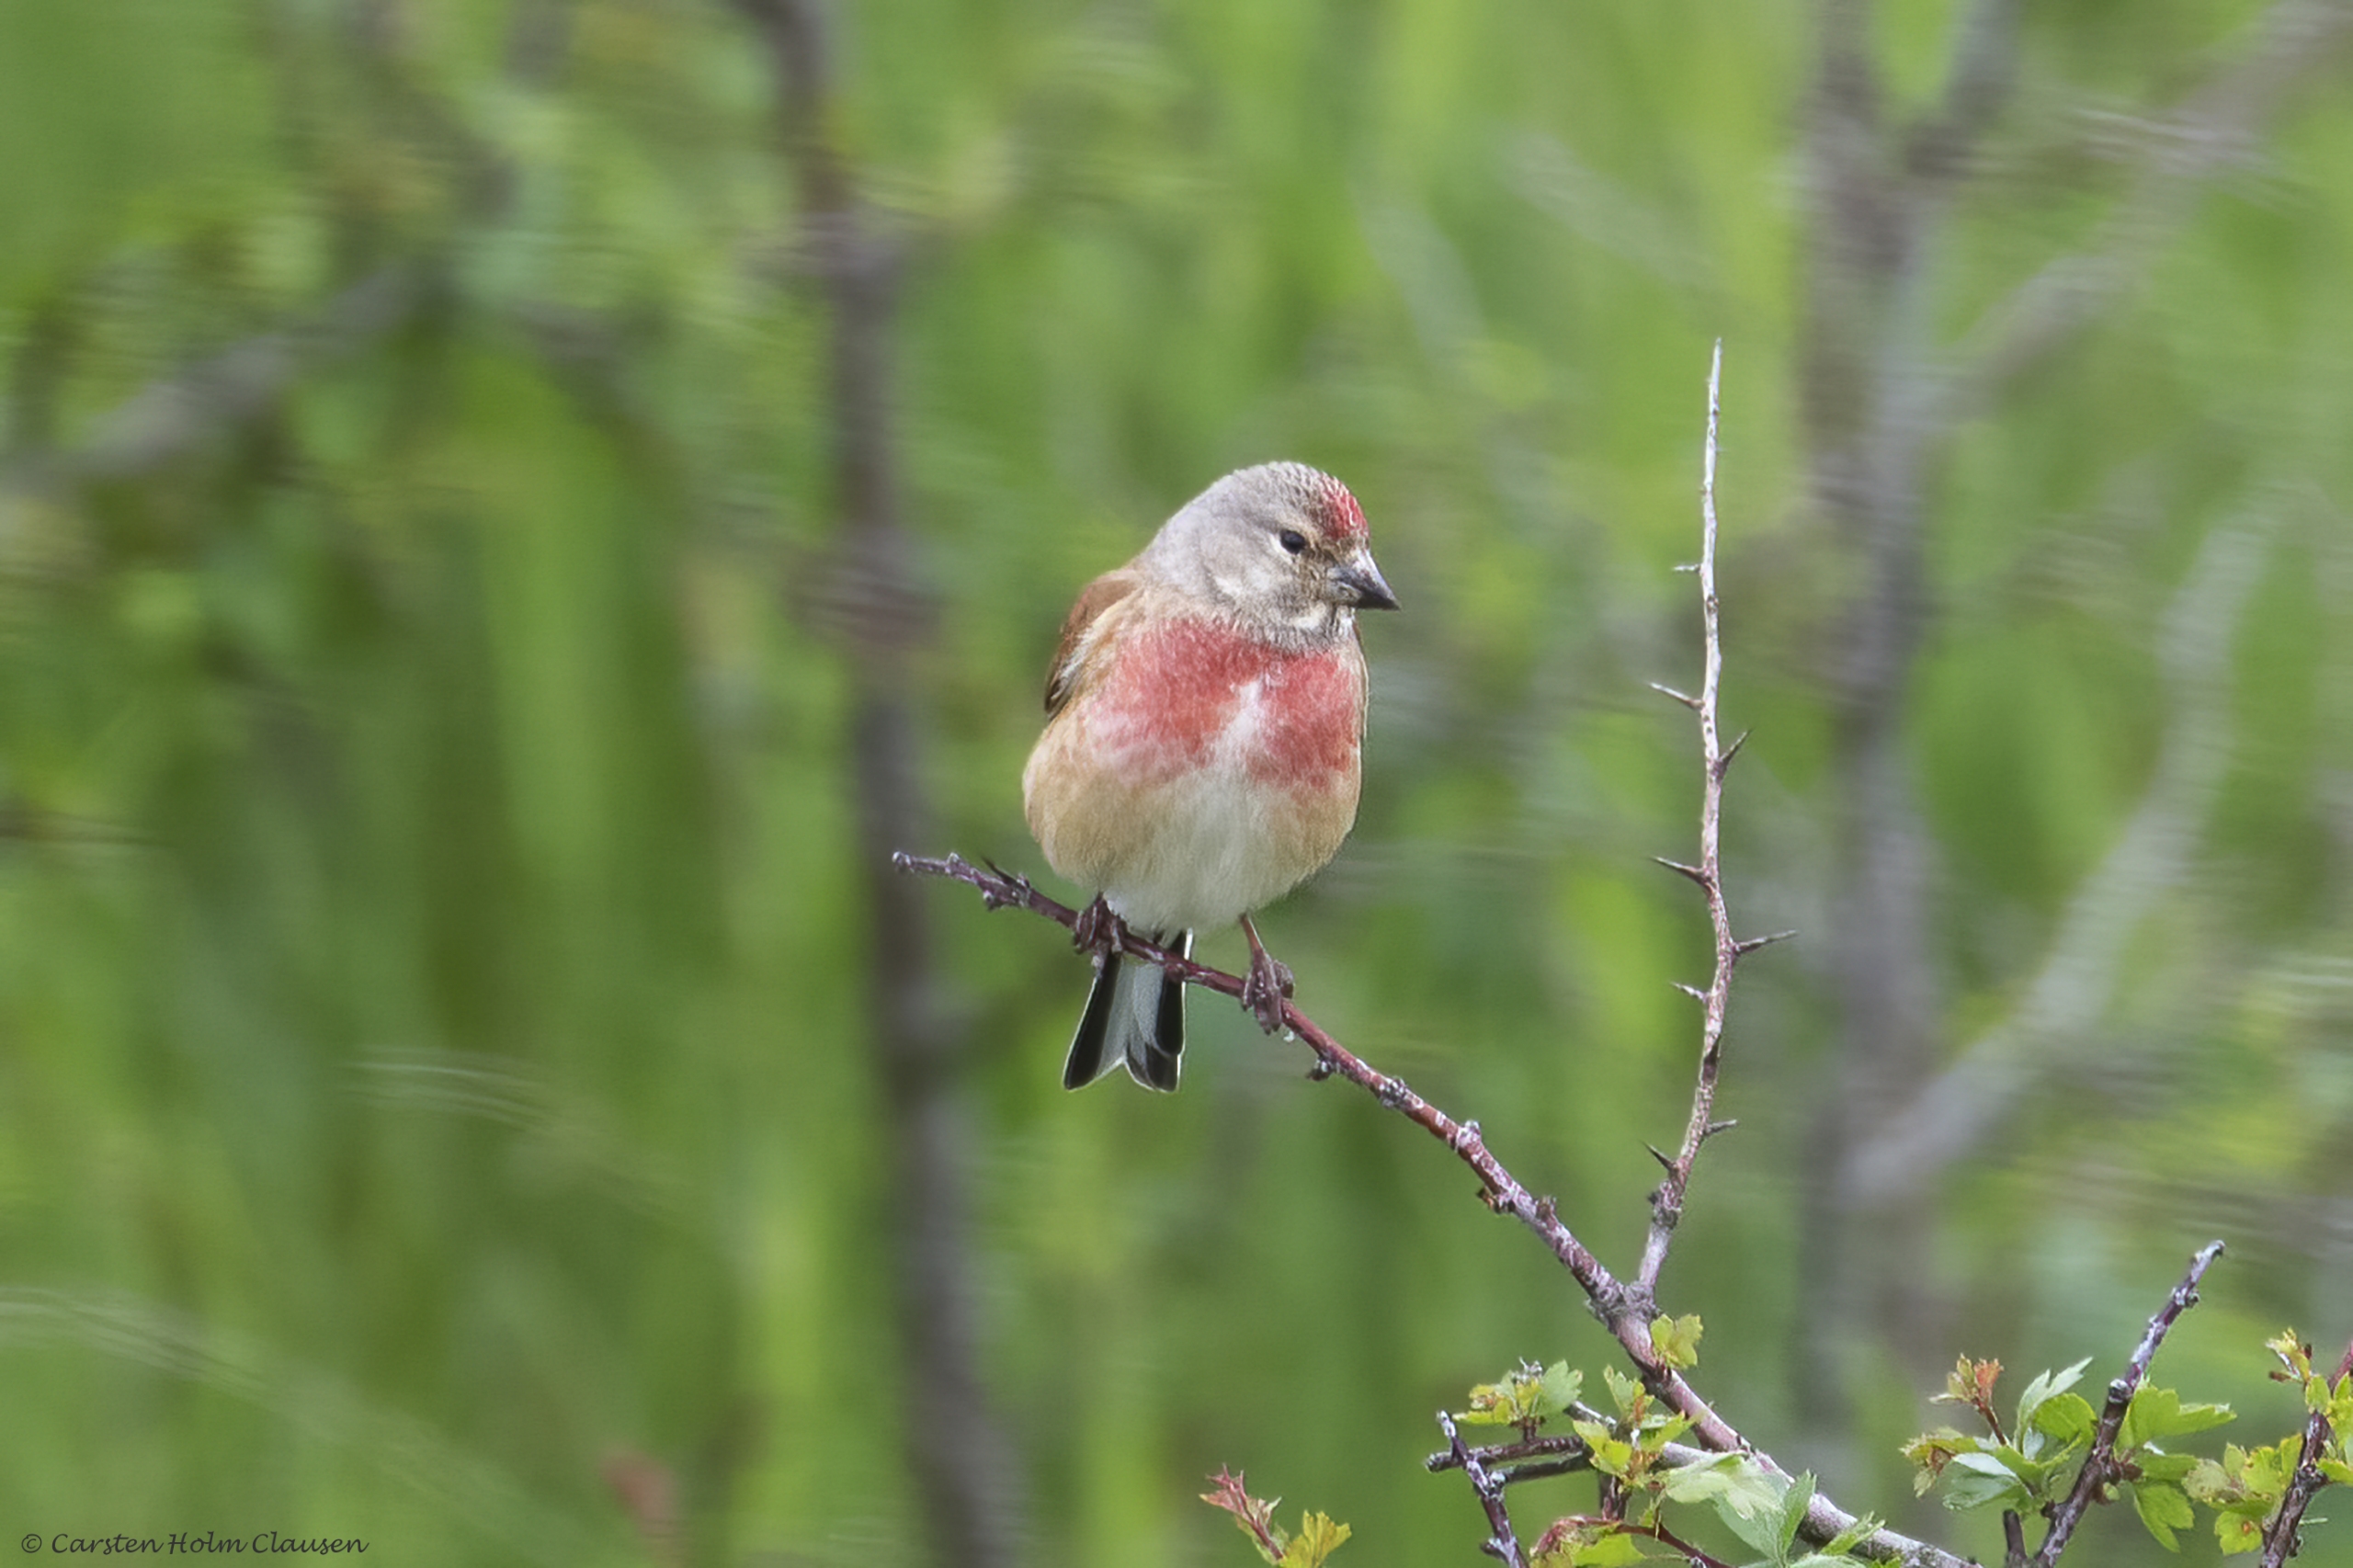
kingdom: Animalia
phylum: Chordata
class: Aves
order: Passeriformes
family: Fringillidae
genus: Linaria
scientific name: Linaria cannabina
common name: Tornirisk
